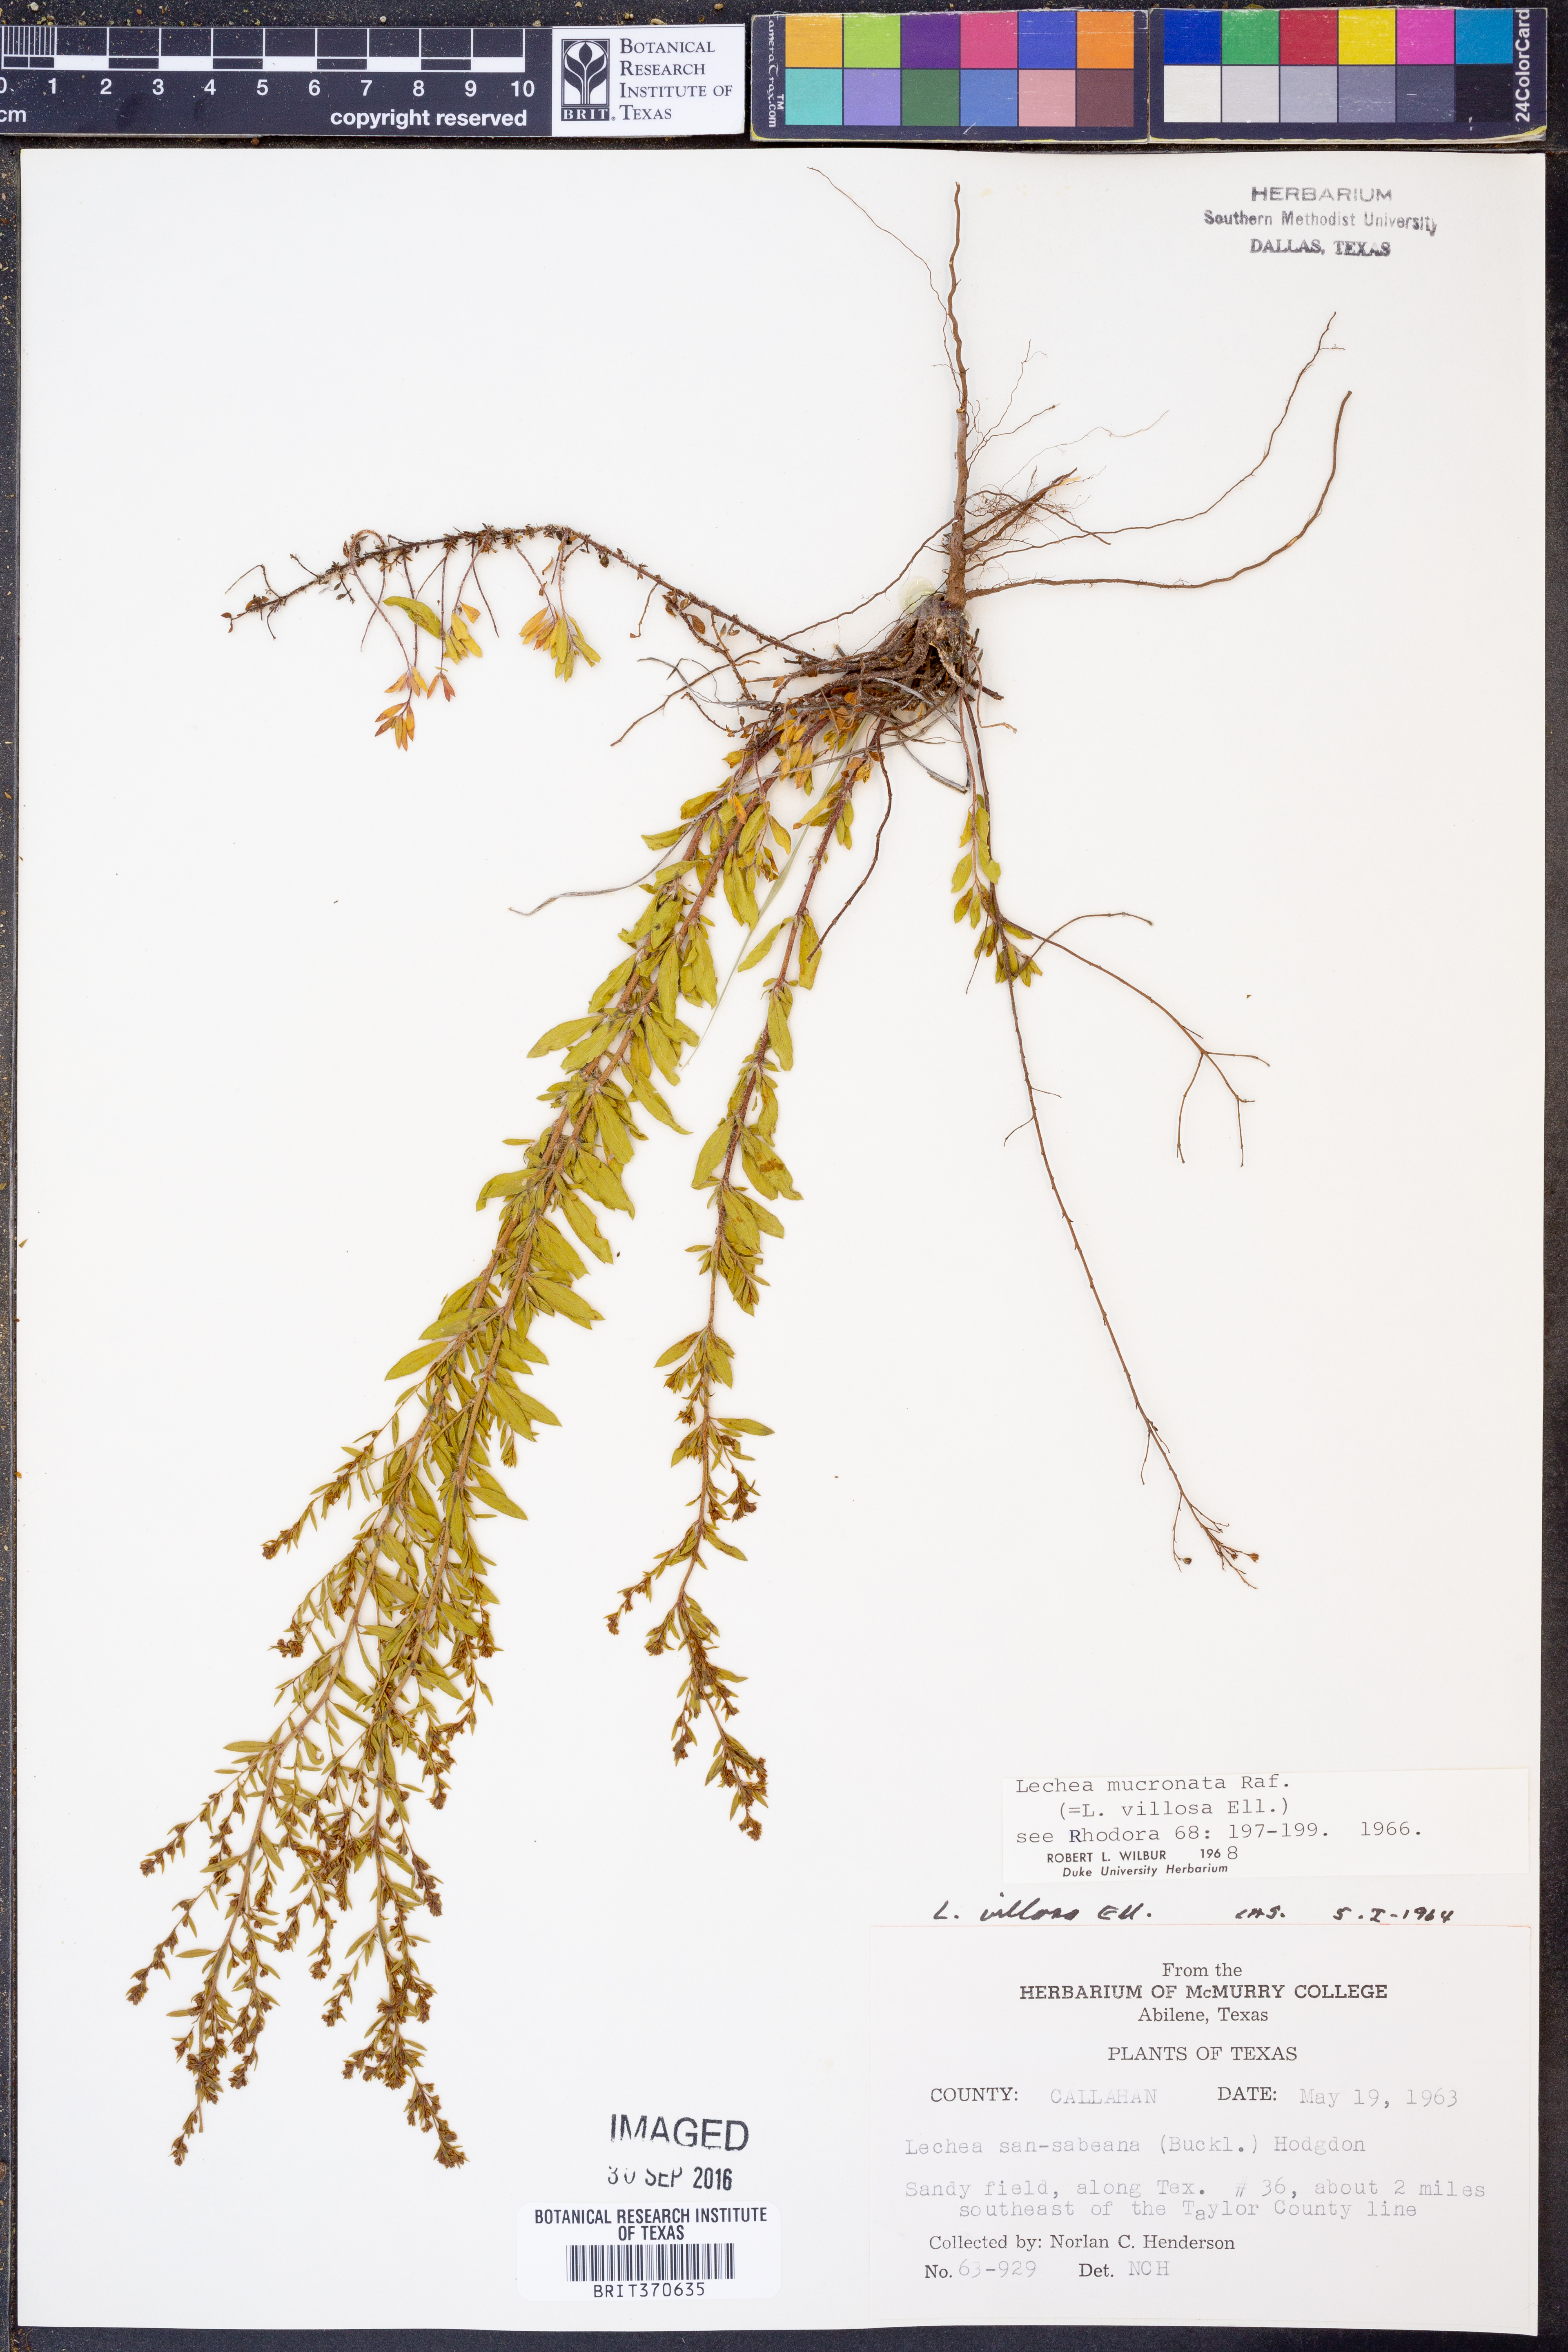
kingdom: Plantae
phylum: Tracheophyta
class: Magnoliopsida
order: Malvales
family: Cistaceae
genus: Lechea
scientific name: Lechea mucronata
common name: Hairy pinweed
